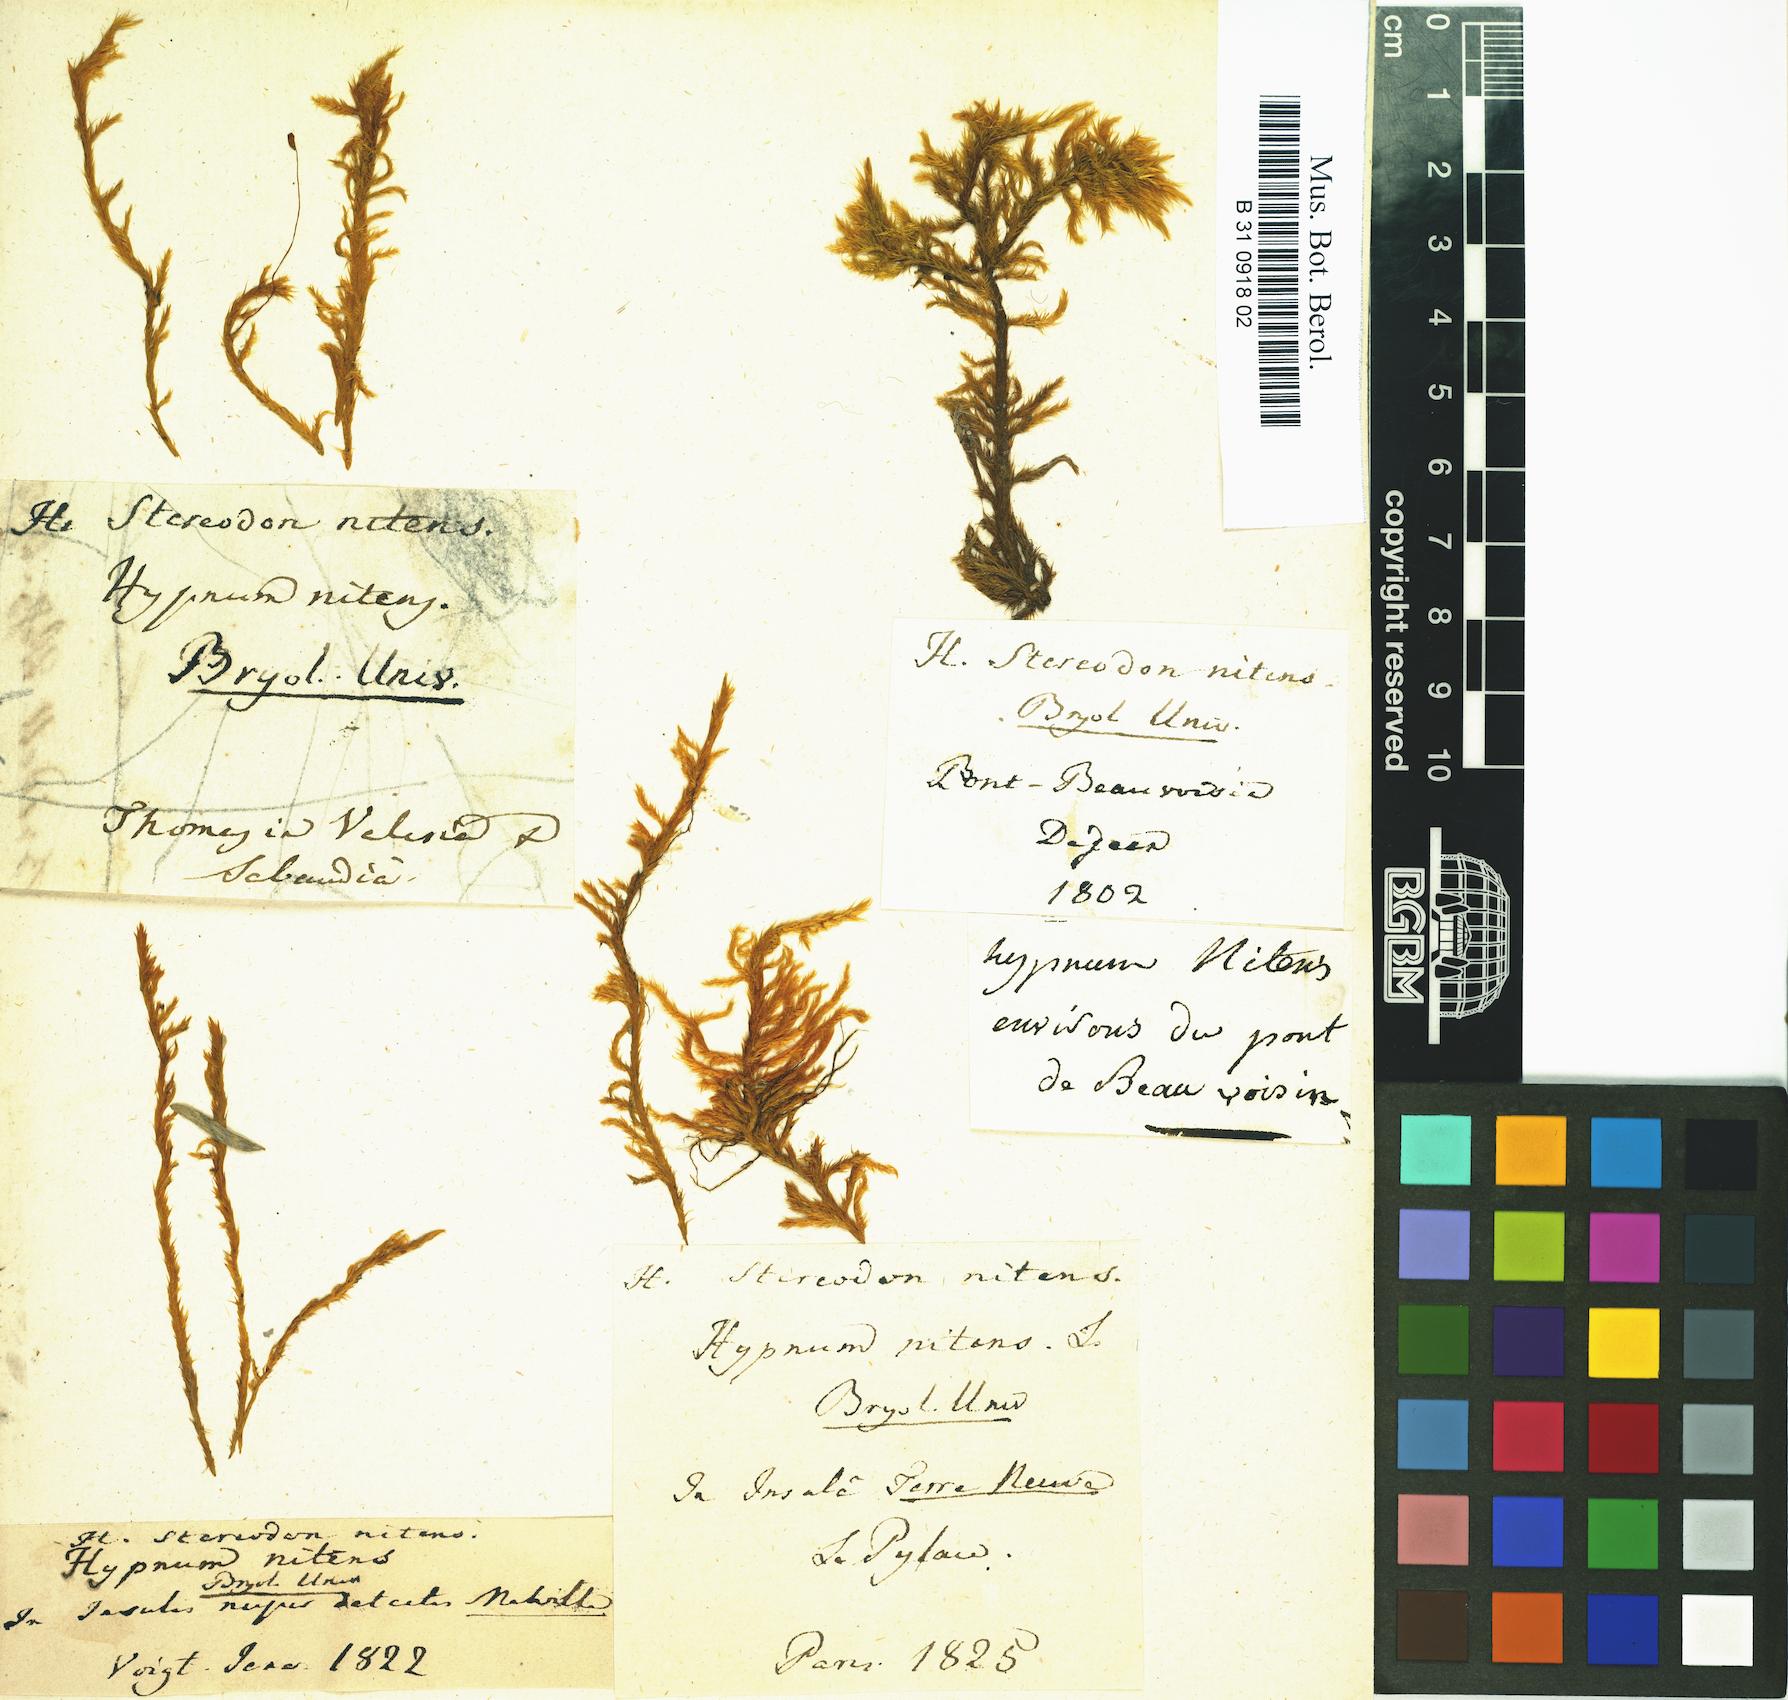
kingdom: Plantae
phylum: Bryophyta
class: Bryopsida
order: Hypnales
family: Amblystegiaceae
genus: Tomentypnum
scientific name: Tomentypnum nitens
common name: Golden fuzzy fen moss
